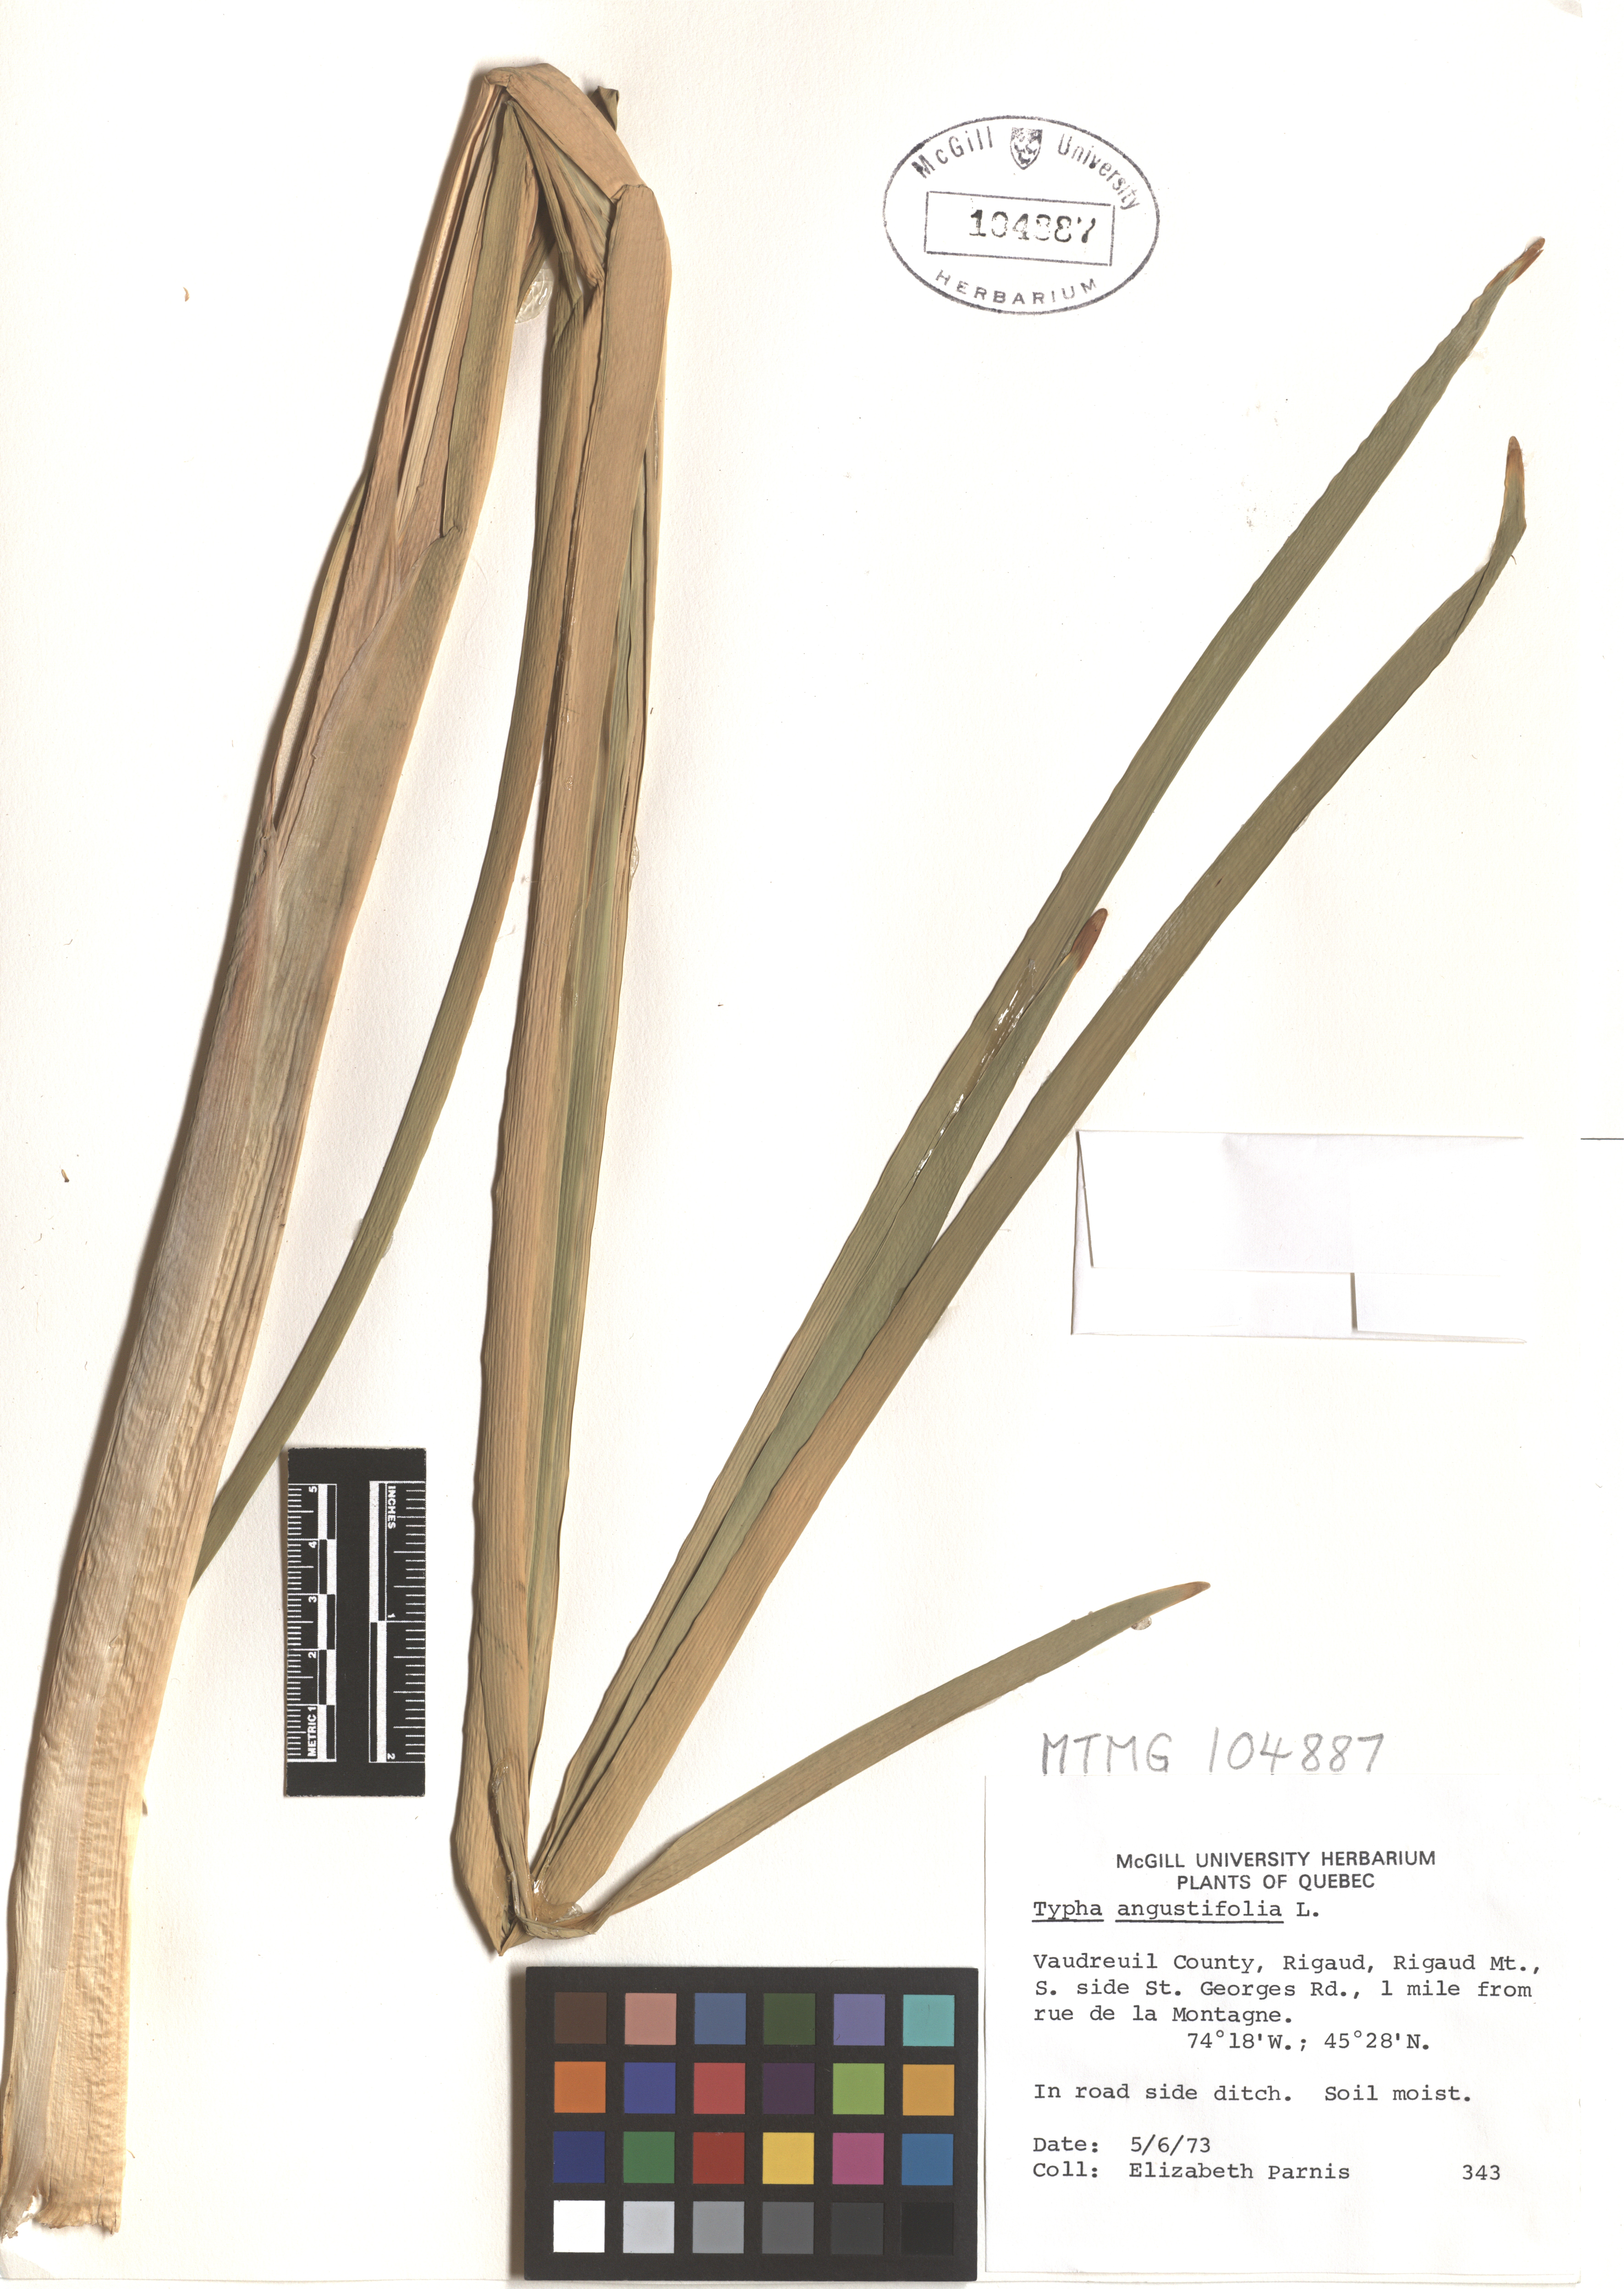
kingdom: Plantae
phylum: Tracheophyta
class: Liliopsida
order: Poales
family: Typhaceae
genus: Typha
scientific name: Typha angustifolia
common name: Lesser bulrush
